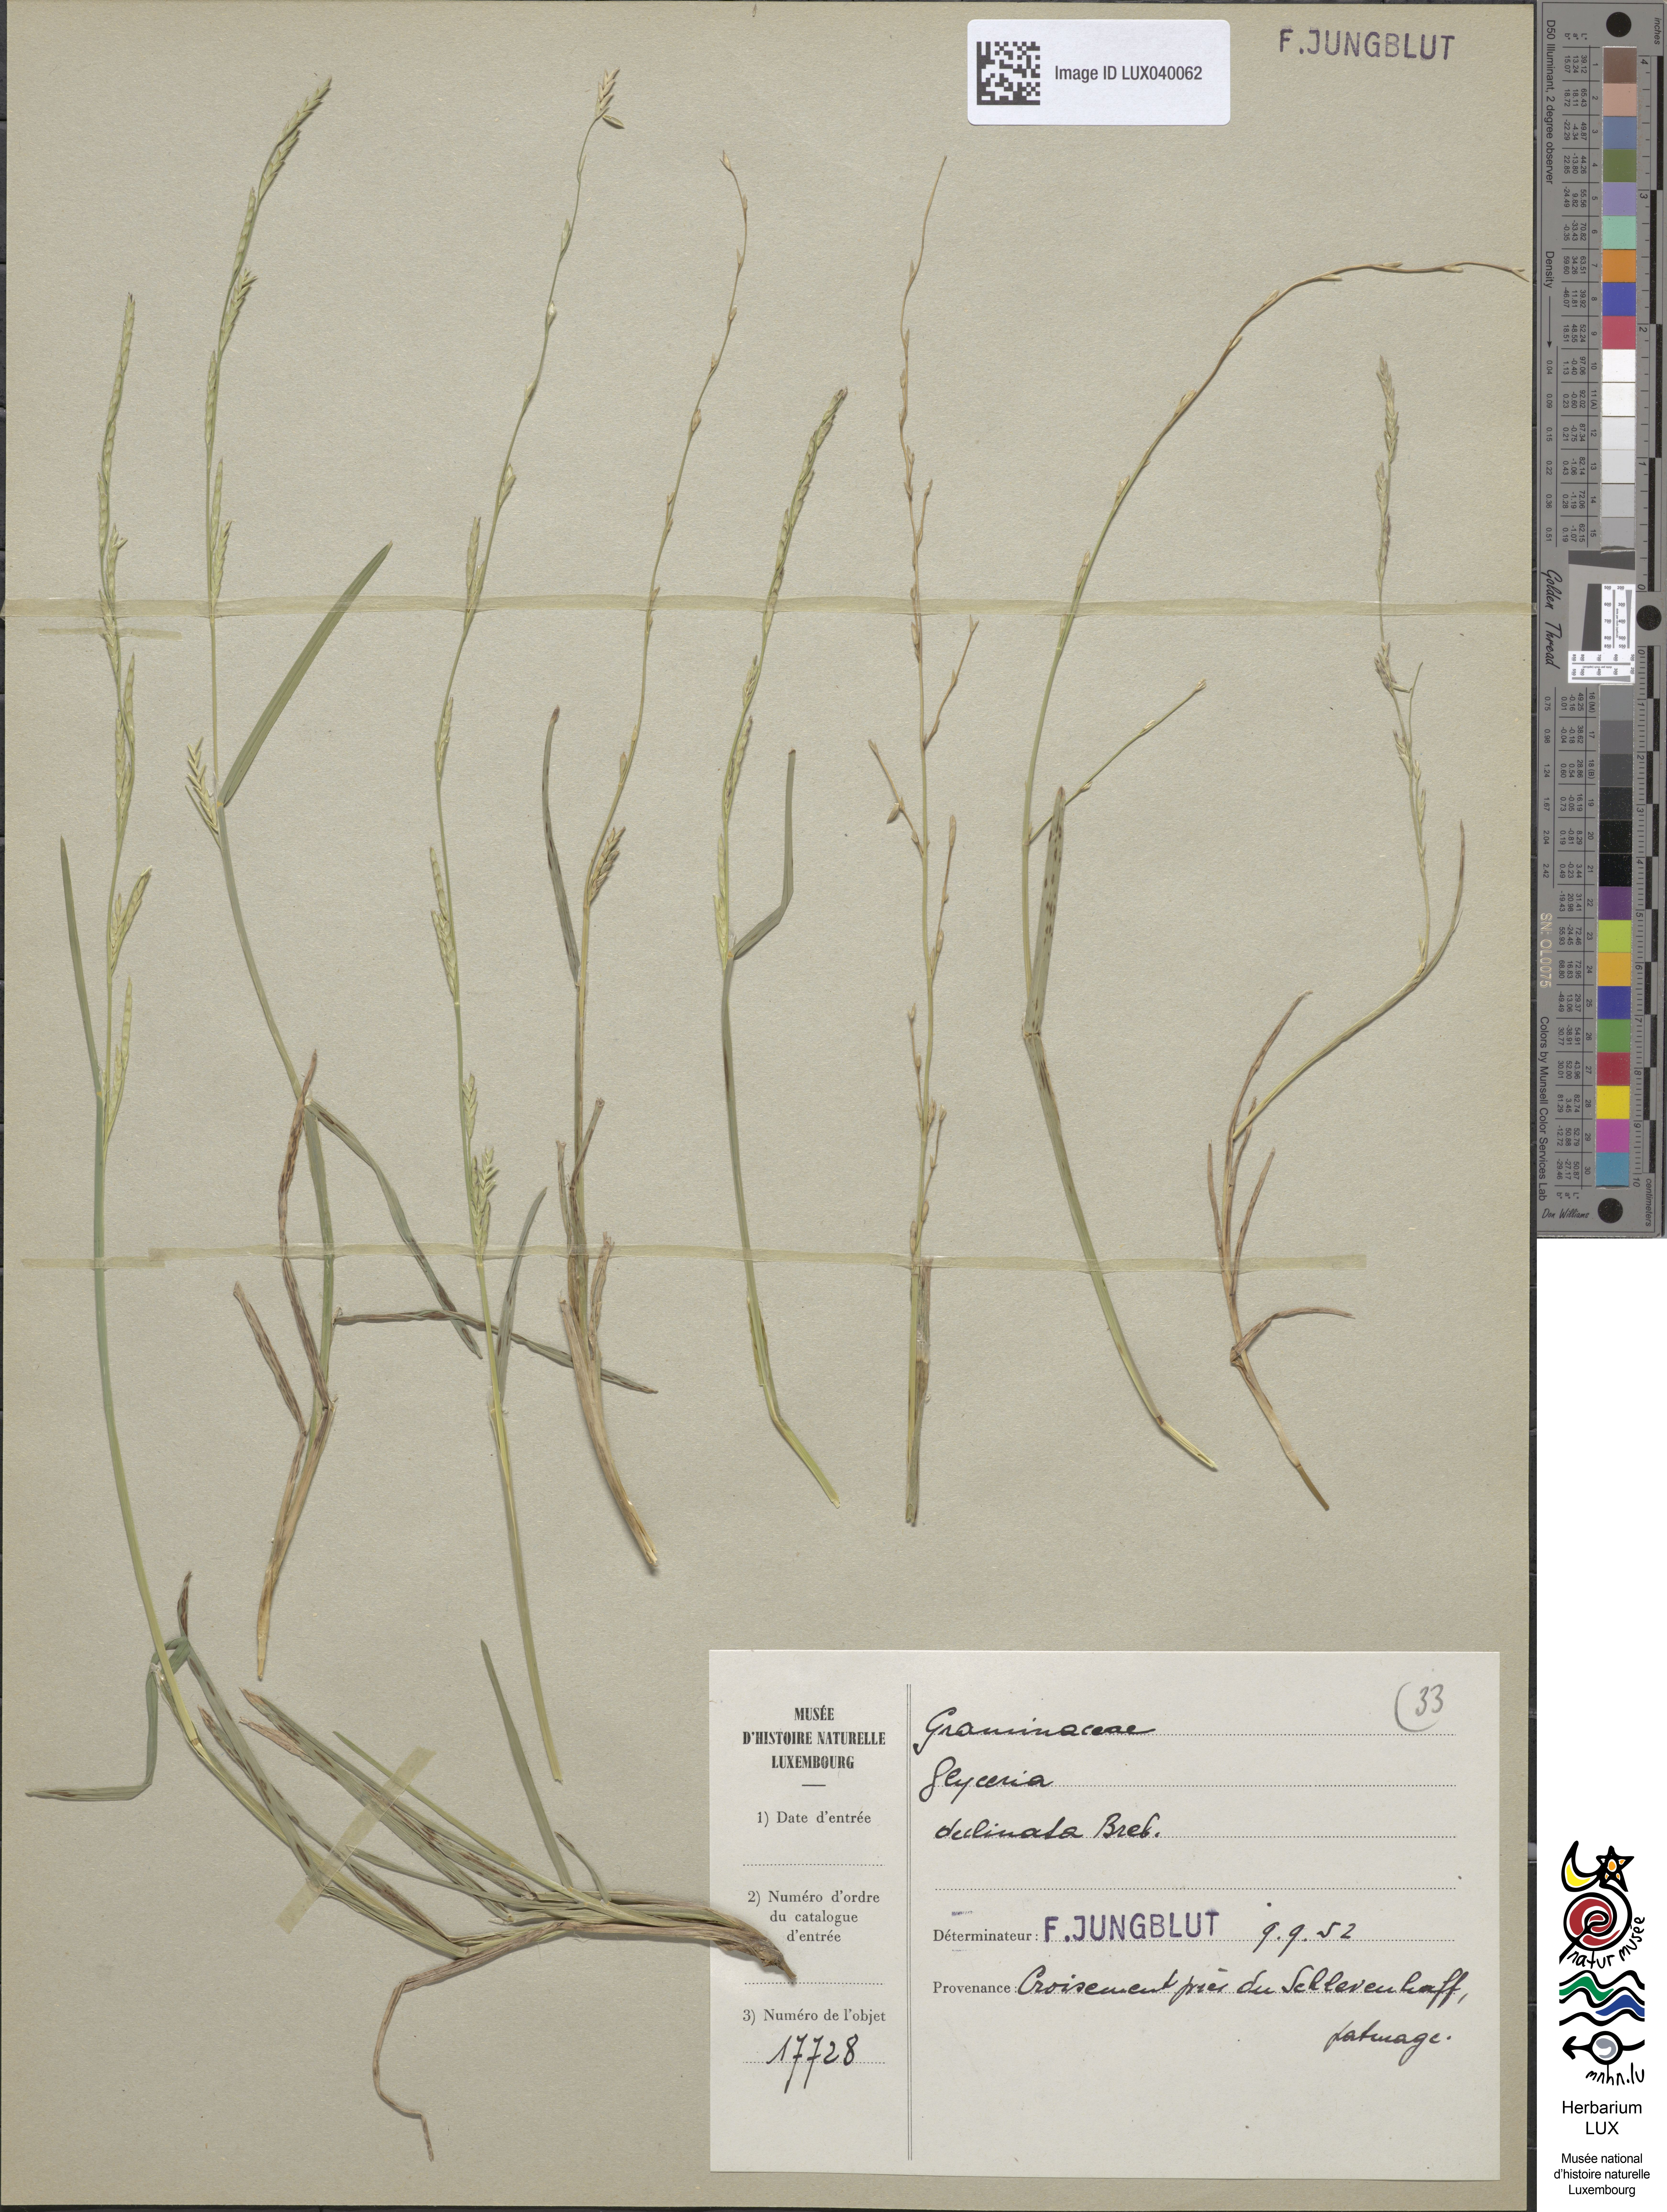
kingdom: Plantae
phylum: Tracheophyta
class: Liliopsida
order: Poales
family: Poaceae
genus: Glyceria
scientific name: Glyceria declinata
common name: Small sweet-grass
